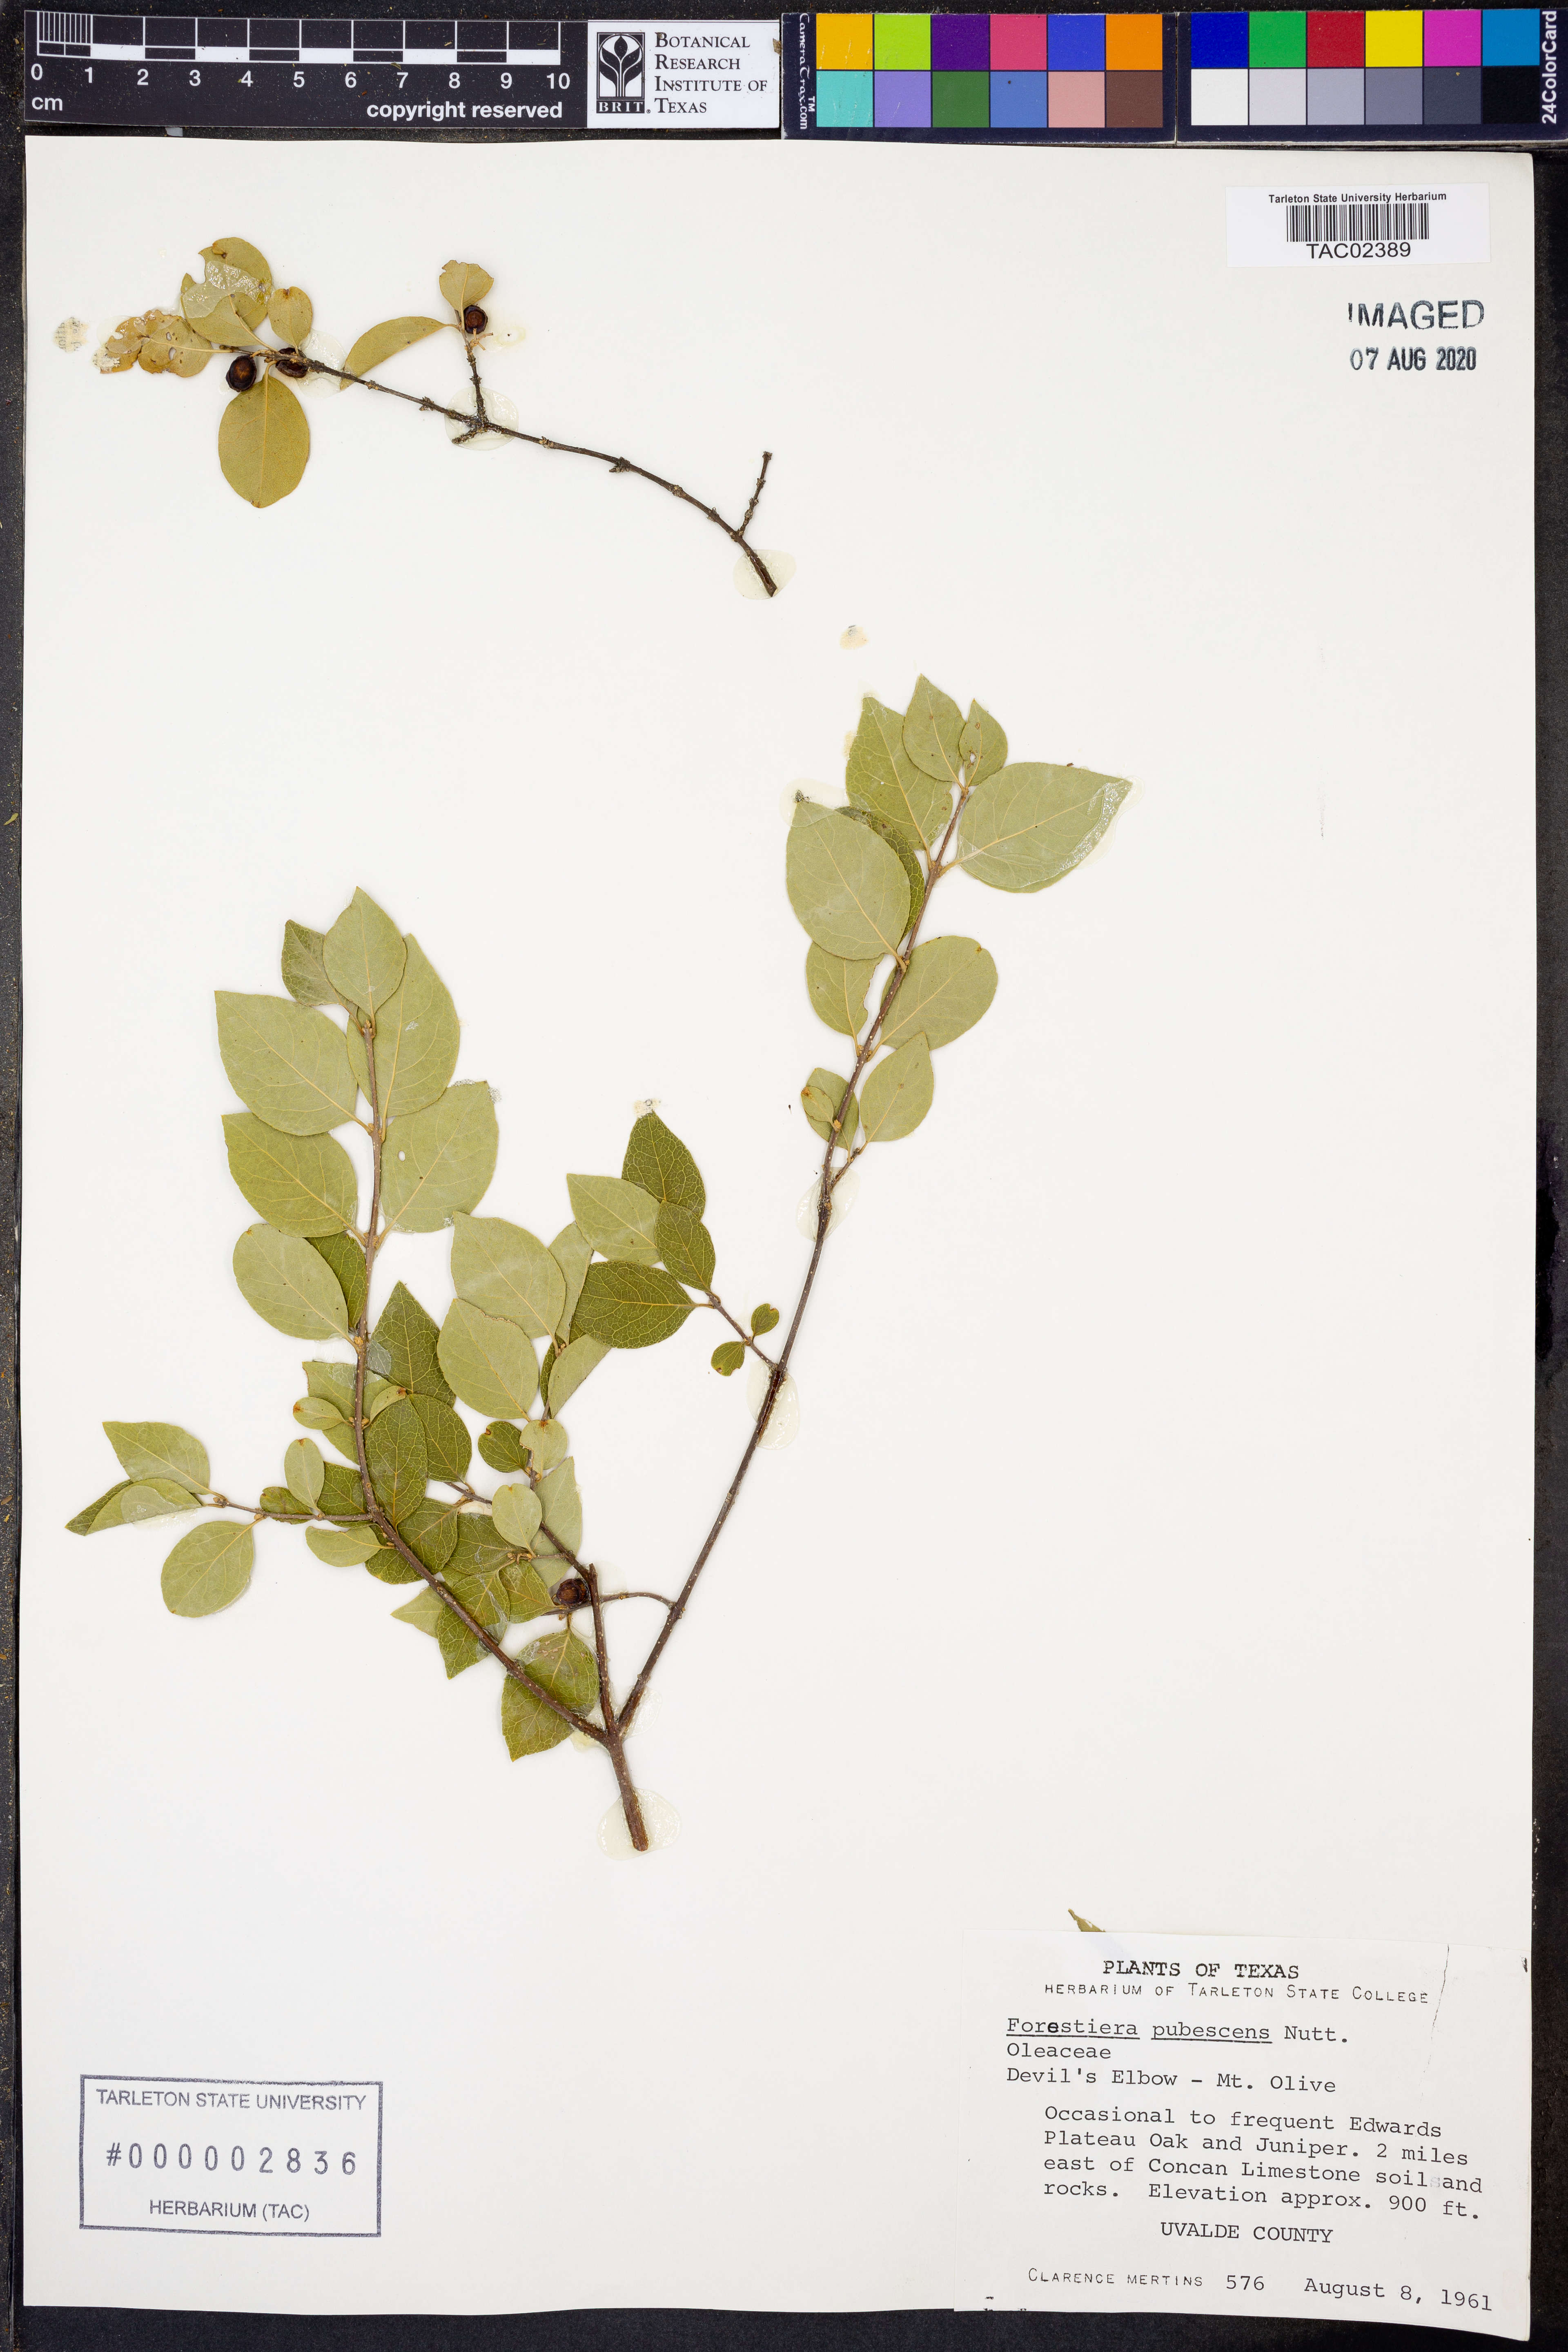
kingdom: Plantae
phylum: Tracheophyta
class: Magnoliopsida
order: Lamiales
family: Oleaceae
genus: Forestiera
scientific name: Forestiera angustifolia
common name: Elbowbush
